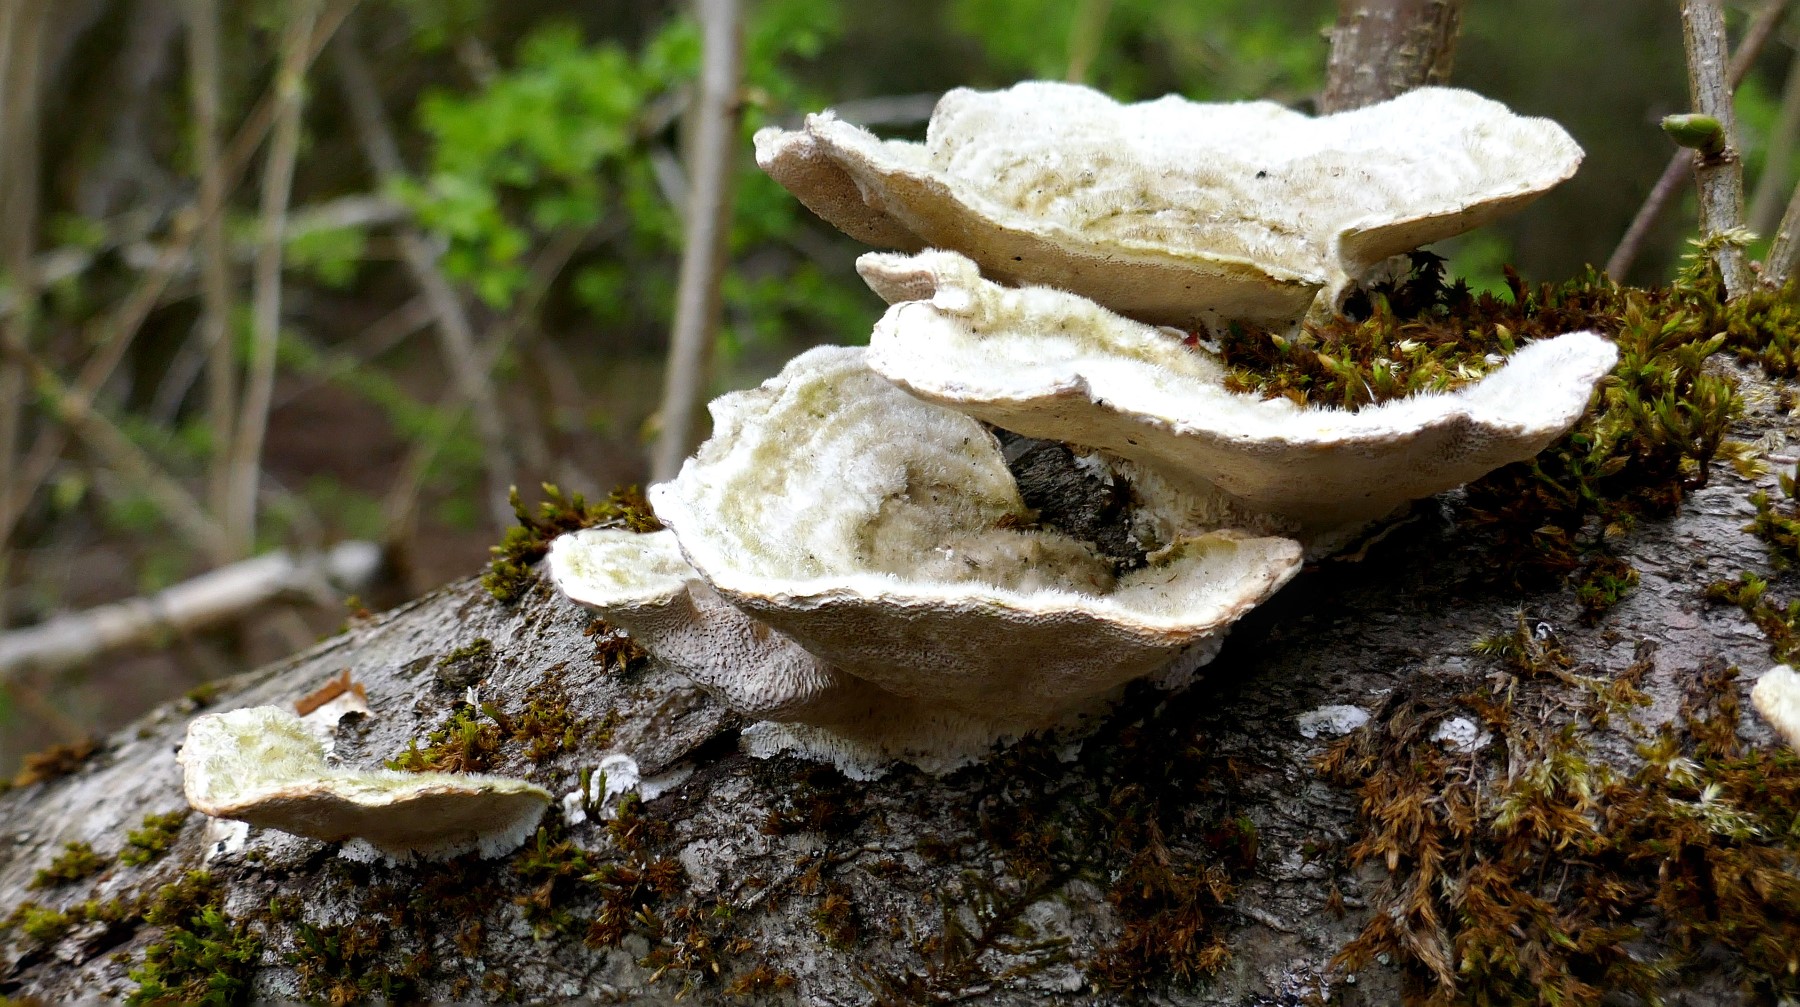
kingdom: Fungi
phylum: Basidiomycota
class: Agaricomycetes
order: Polyporales
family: Polyporaceae
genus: Trametes
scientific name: Trametes hirsuta
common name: håret læderporesvamp
